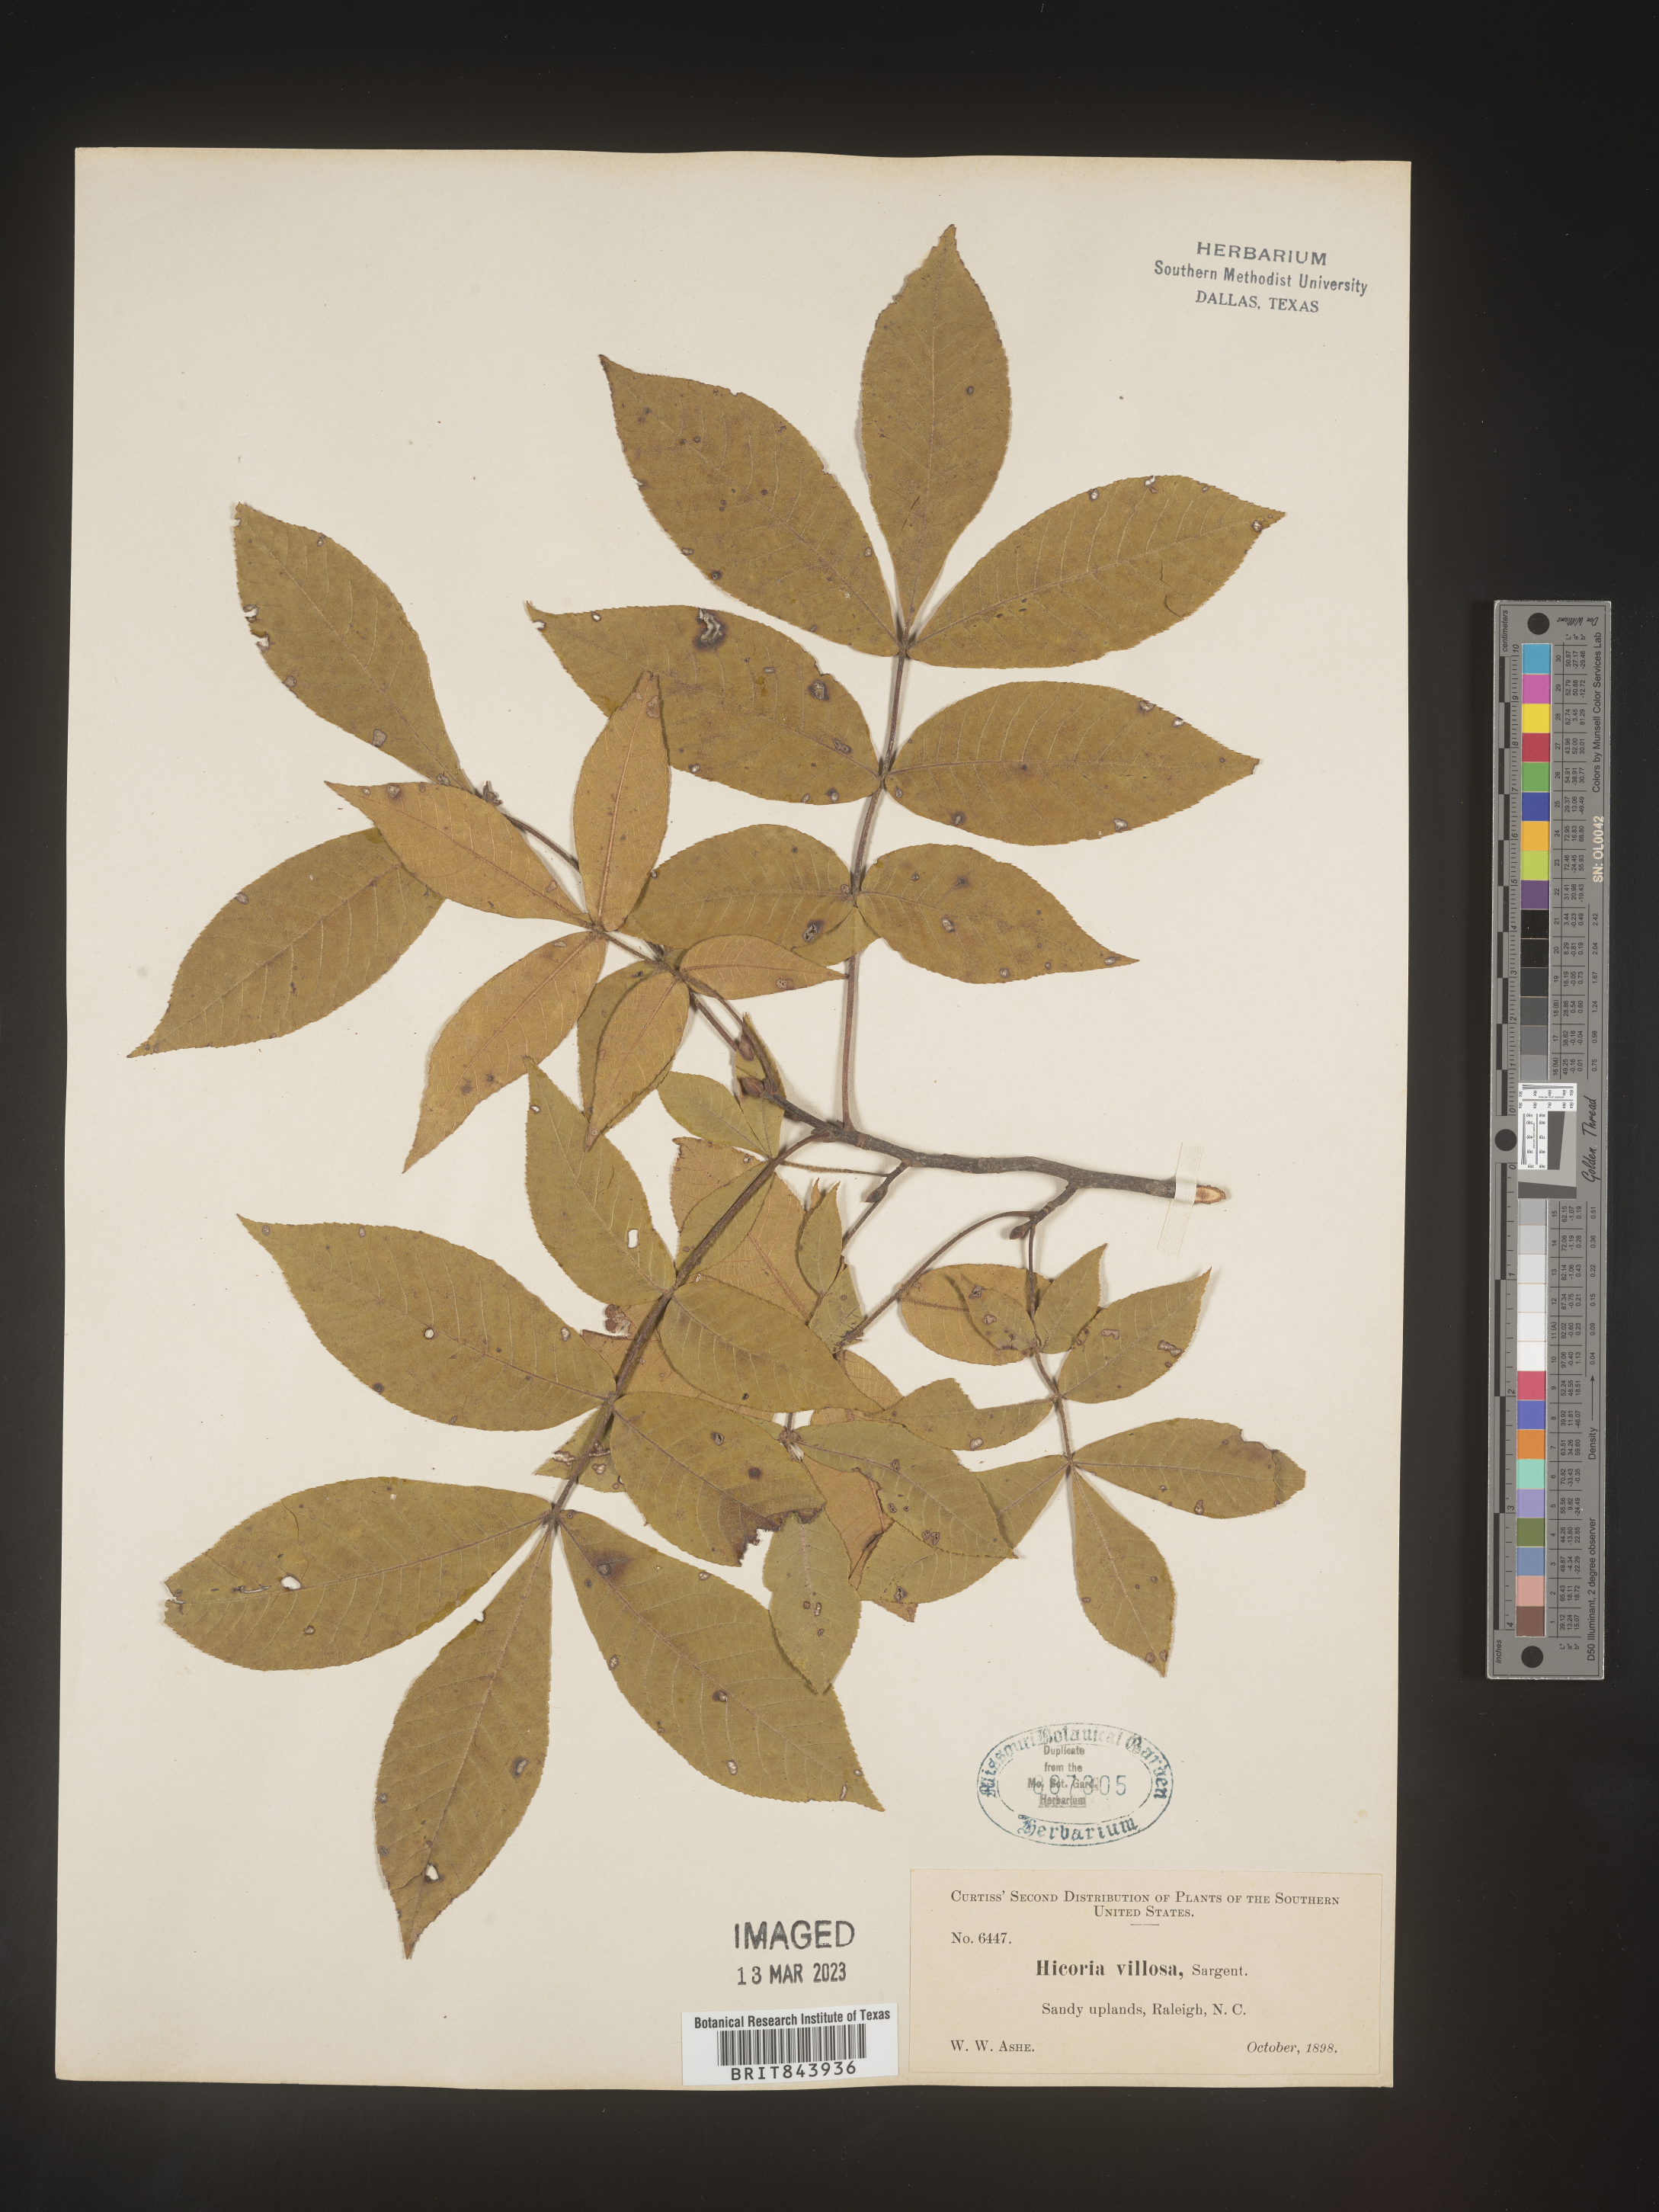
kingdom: Plantae
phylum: Tracheophyta
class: Magnoliopsida
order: Fagales
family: Juglandaceae
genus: Carya
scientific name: Carya
